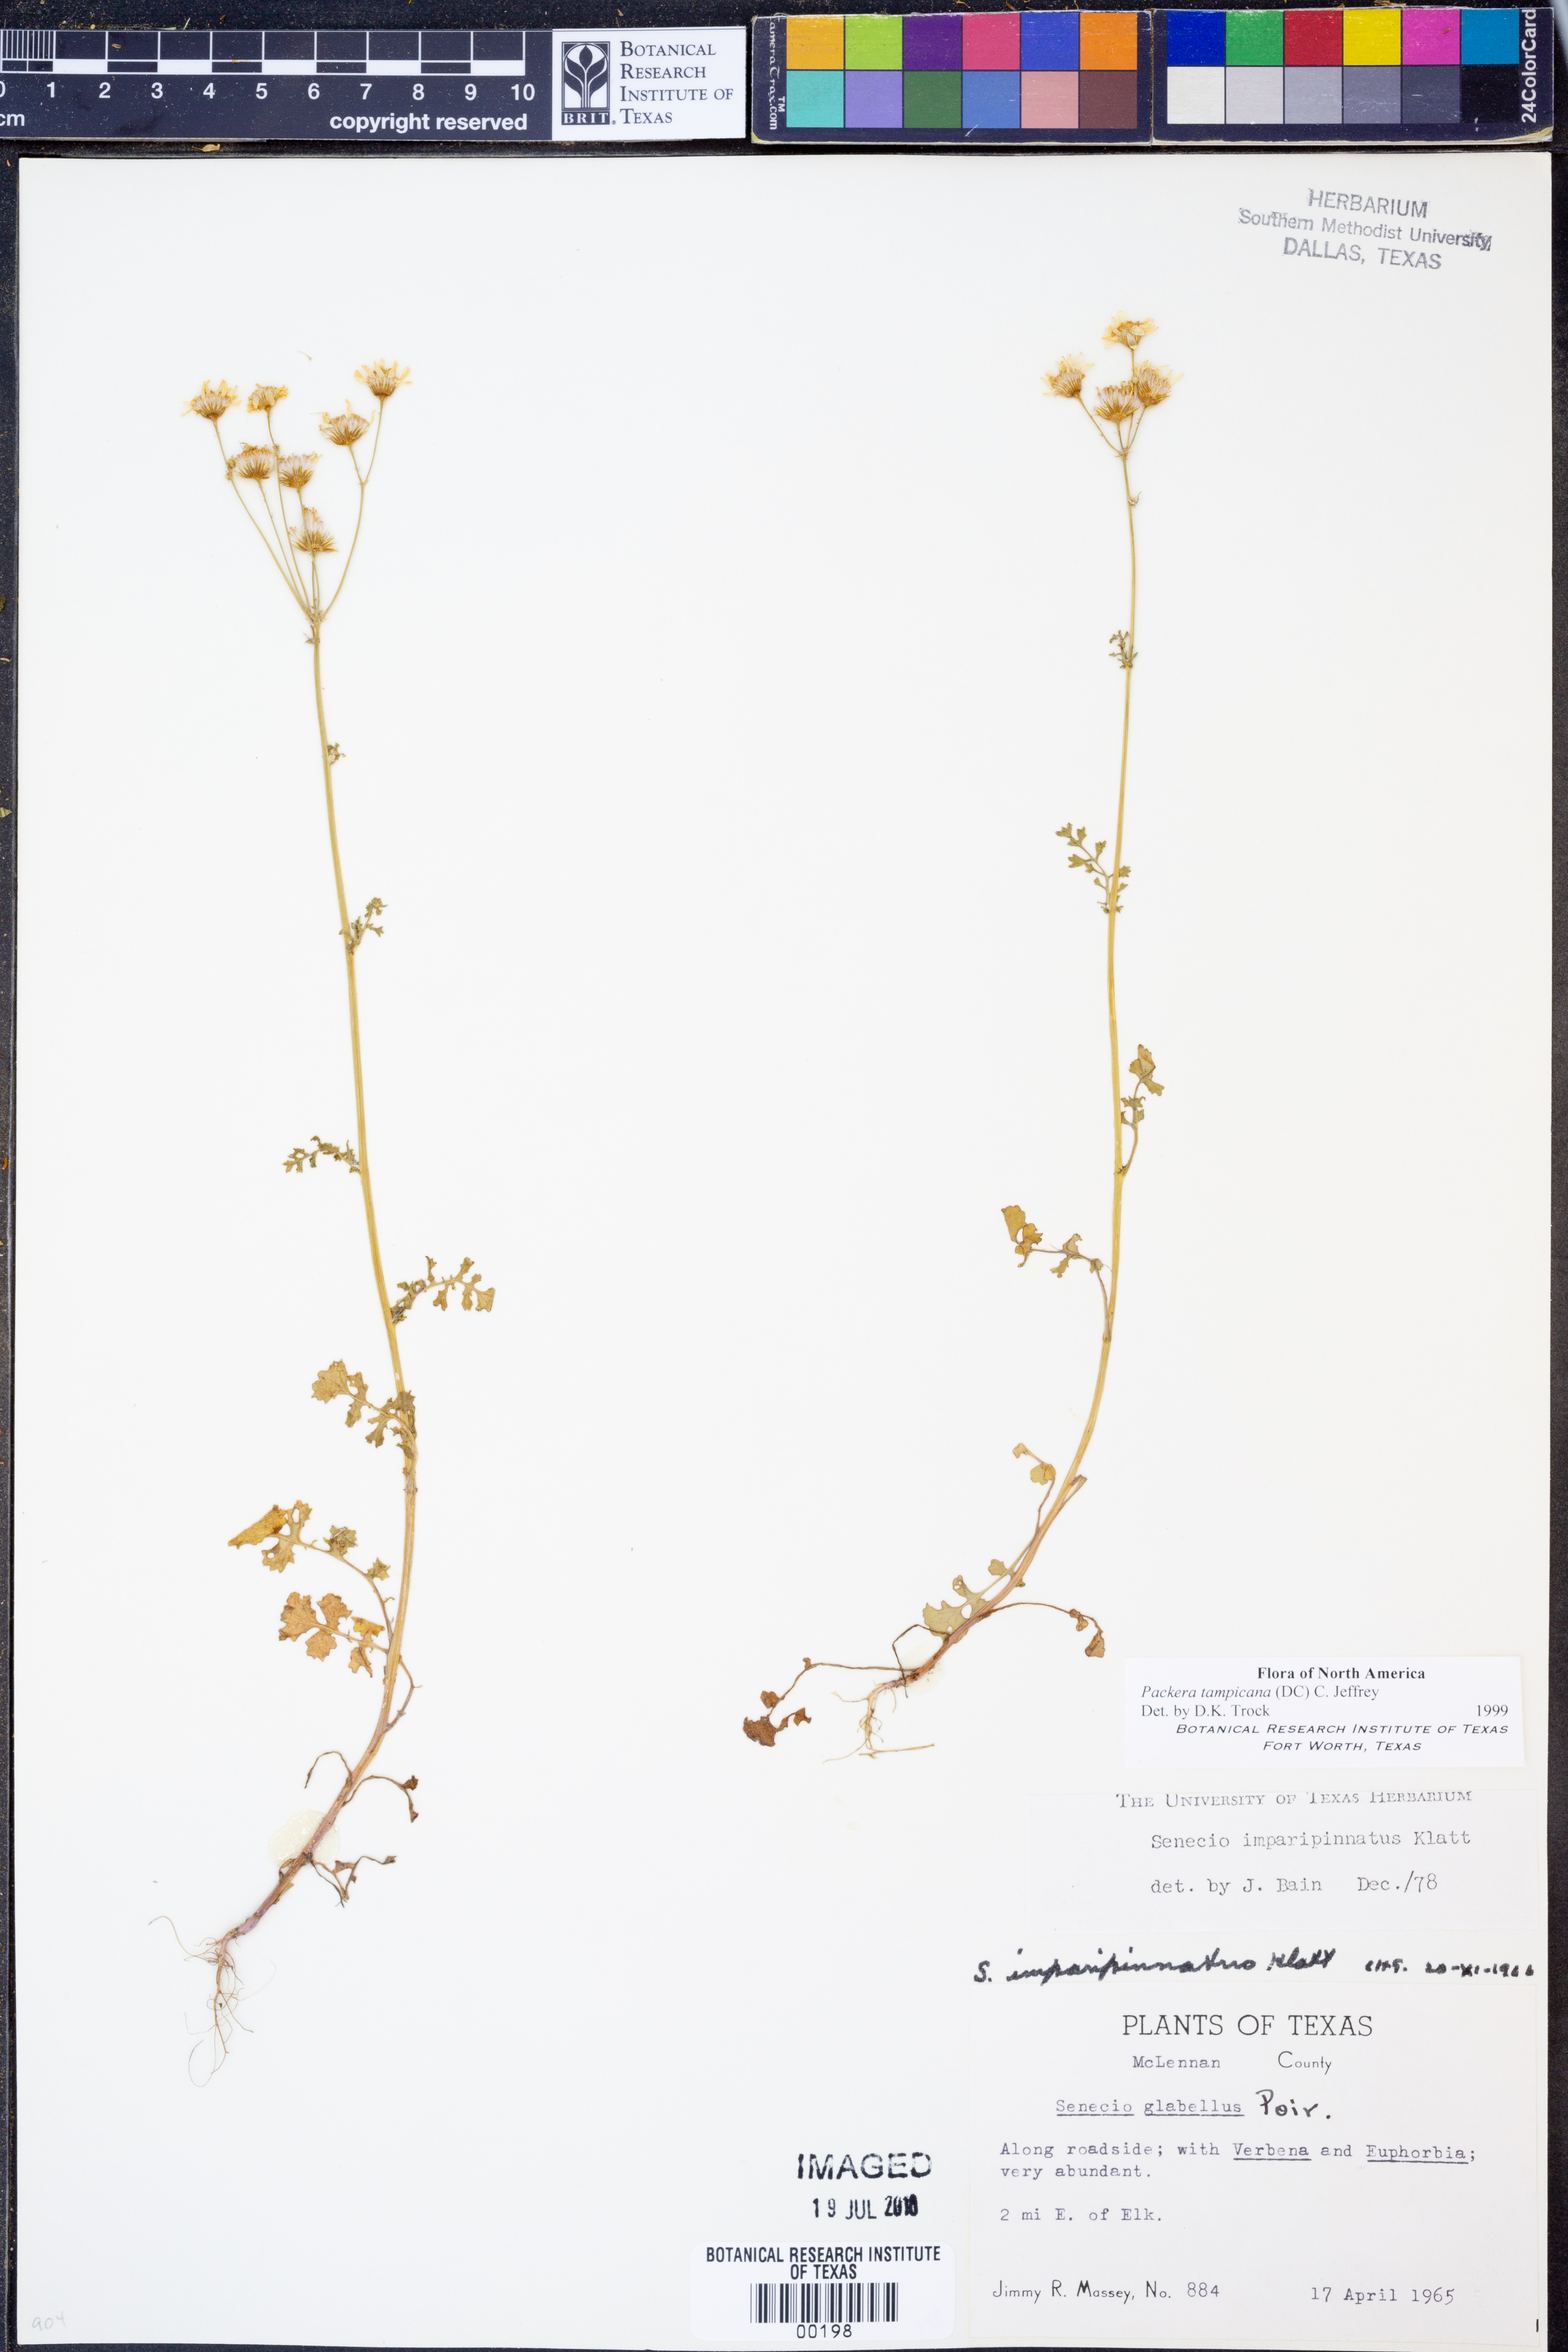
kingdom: Plantae
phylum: Tracheophyta
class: Magnoliopsida
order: Asterales
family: Asteraceae
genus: Packera
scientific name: Packera tampicana
